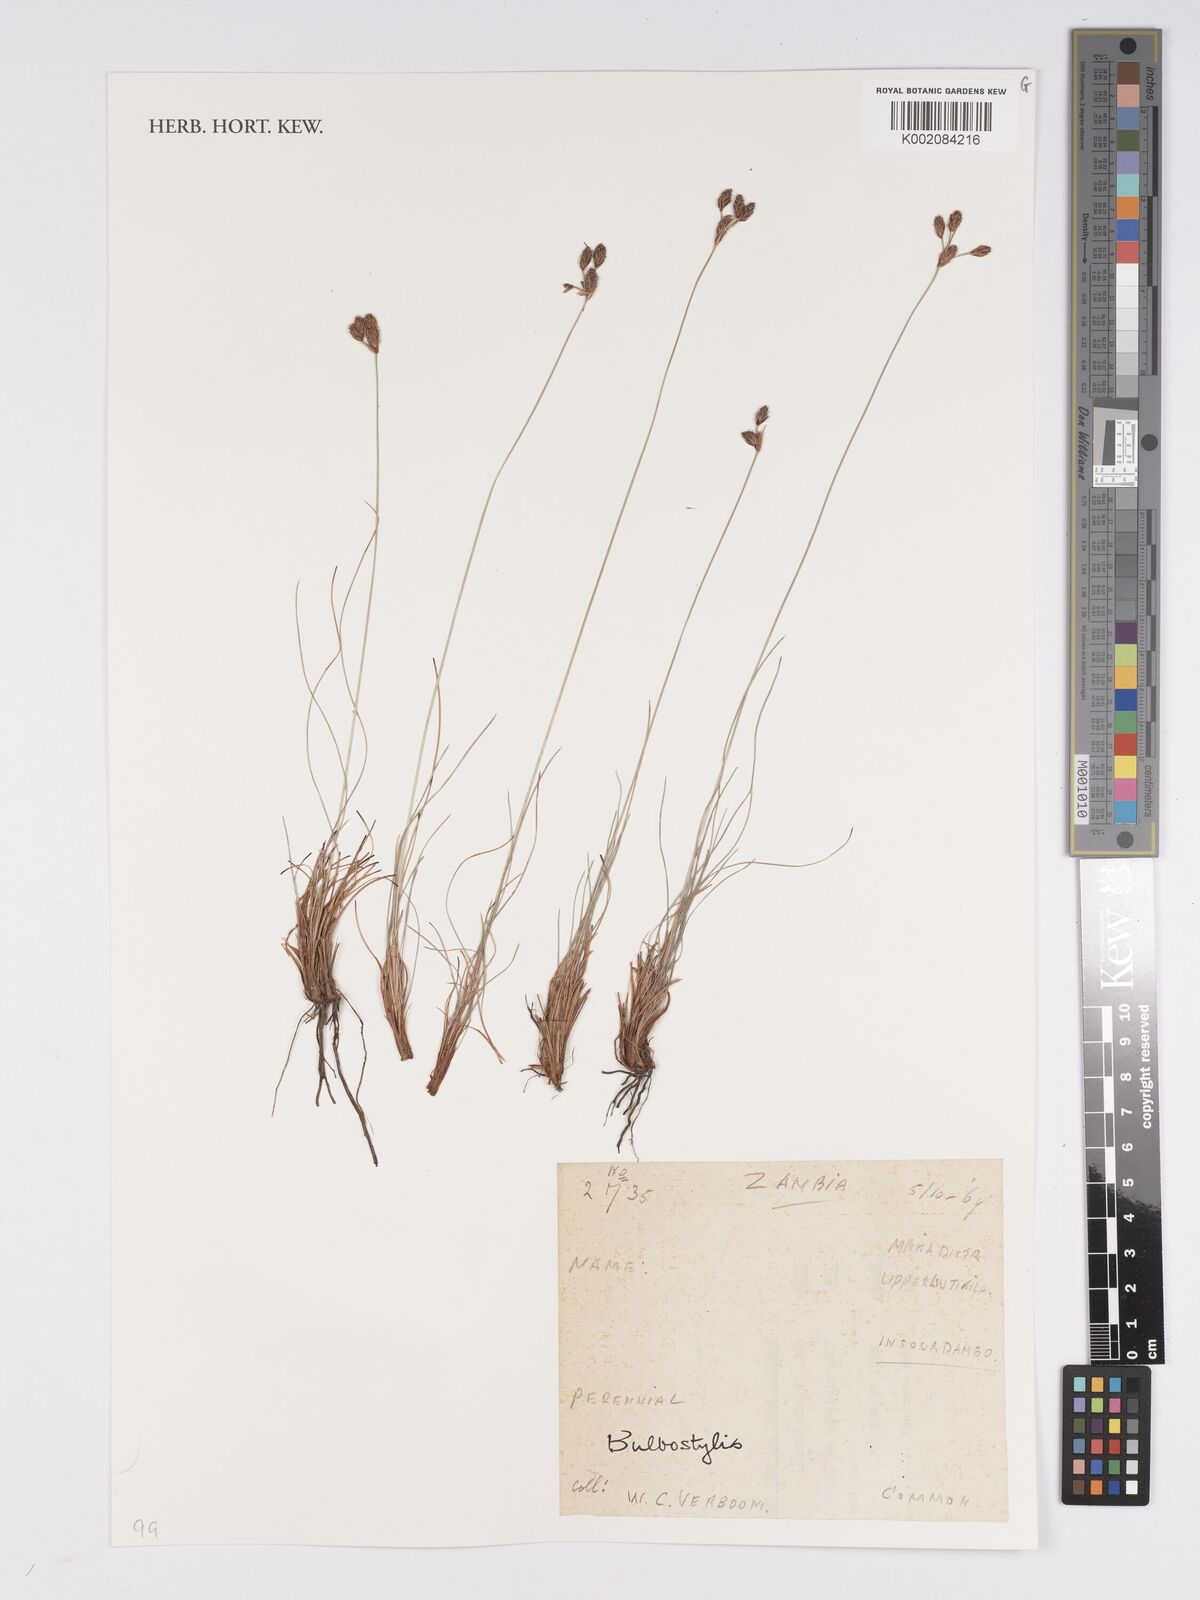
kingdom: Plantae
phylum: Tracheophyta
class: Liliopsida
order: Poales
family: Cyperaceae
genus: Bulbostylis
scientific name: Bulbostylis
